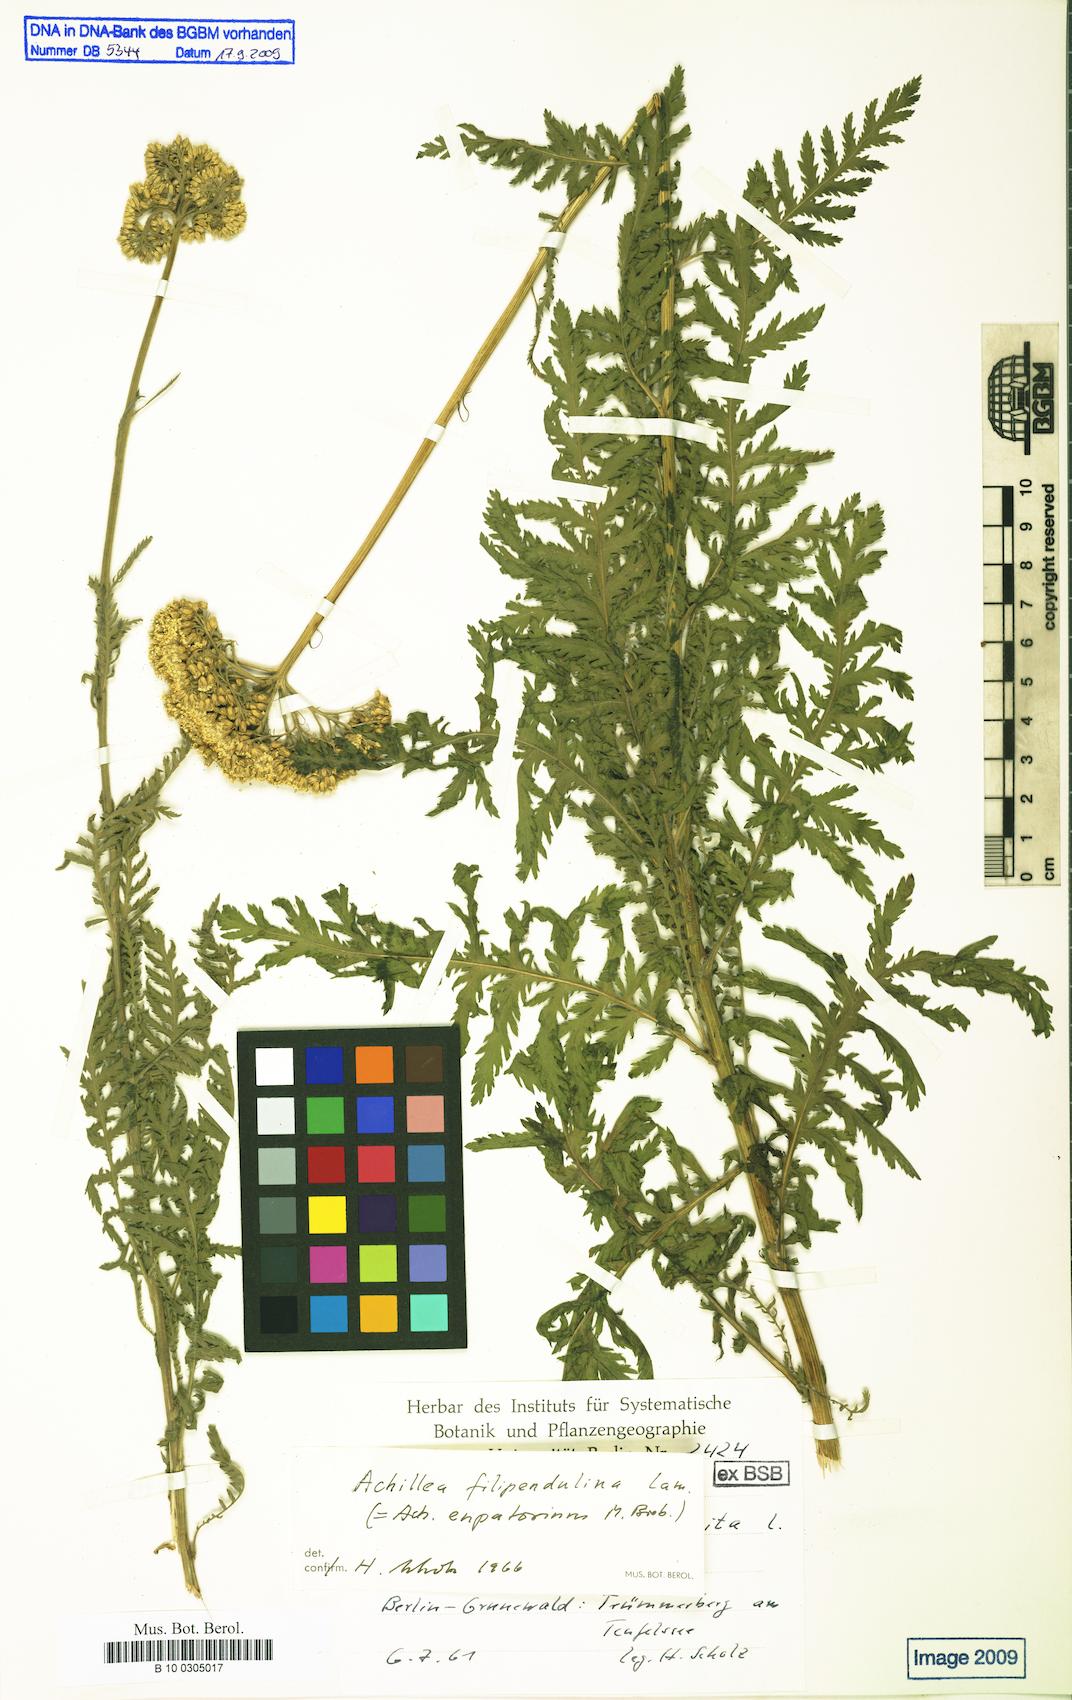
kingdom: Plantae
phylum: Tracheophyta
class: Magnoliopsida
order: Asterales
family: Asteraceae
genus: Achillea
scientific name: Achillea filipendulina
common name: Fernleaf yarrow
